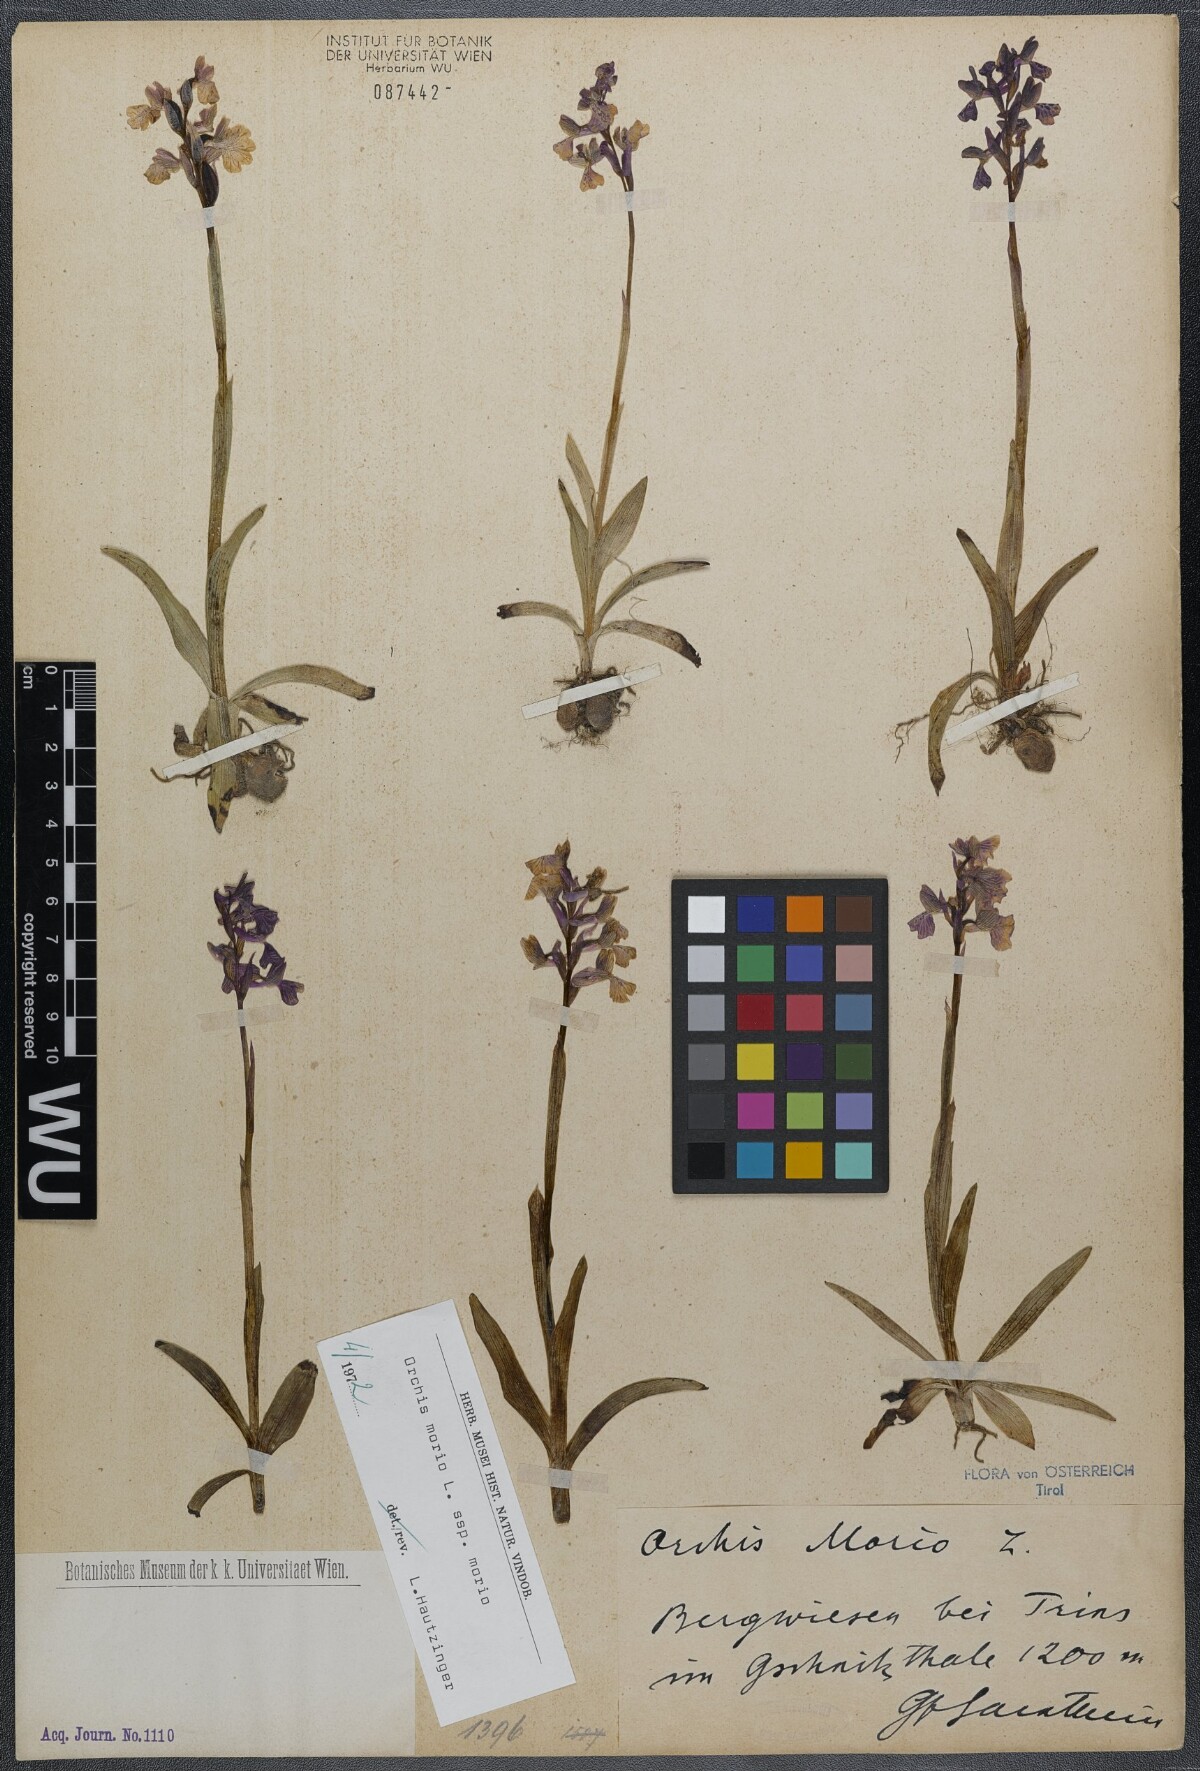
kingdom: Plantae
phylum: Tracheophyta
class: Liliopsida
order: Asparagales
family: Orchidaceae
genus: Anacamptis
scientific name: Anacamptis morio
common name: Green-winged orchid
